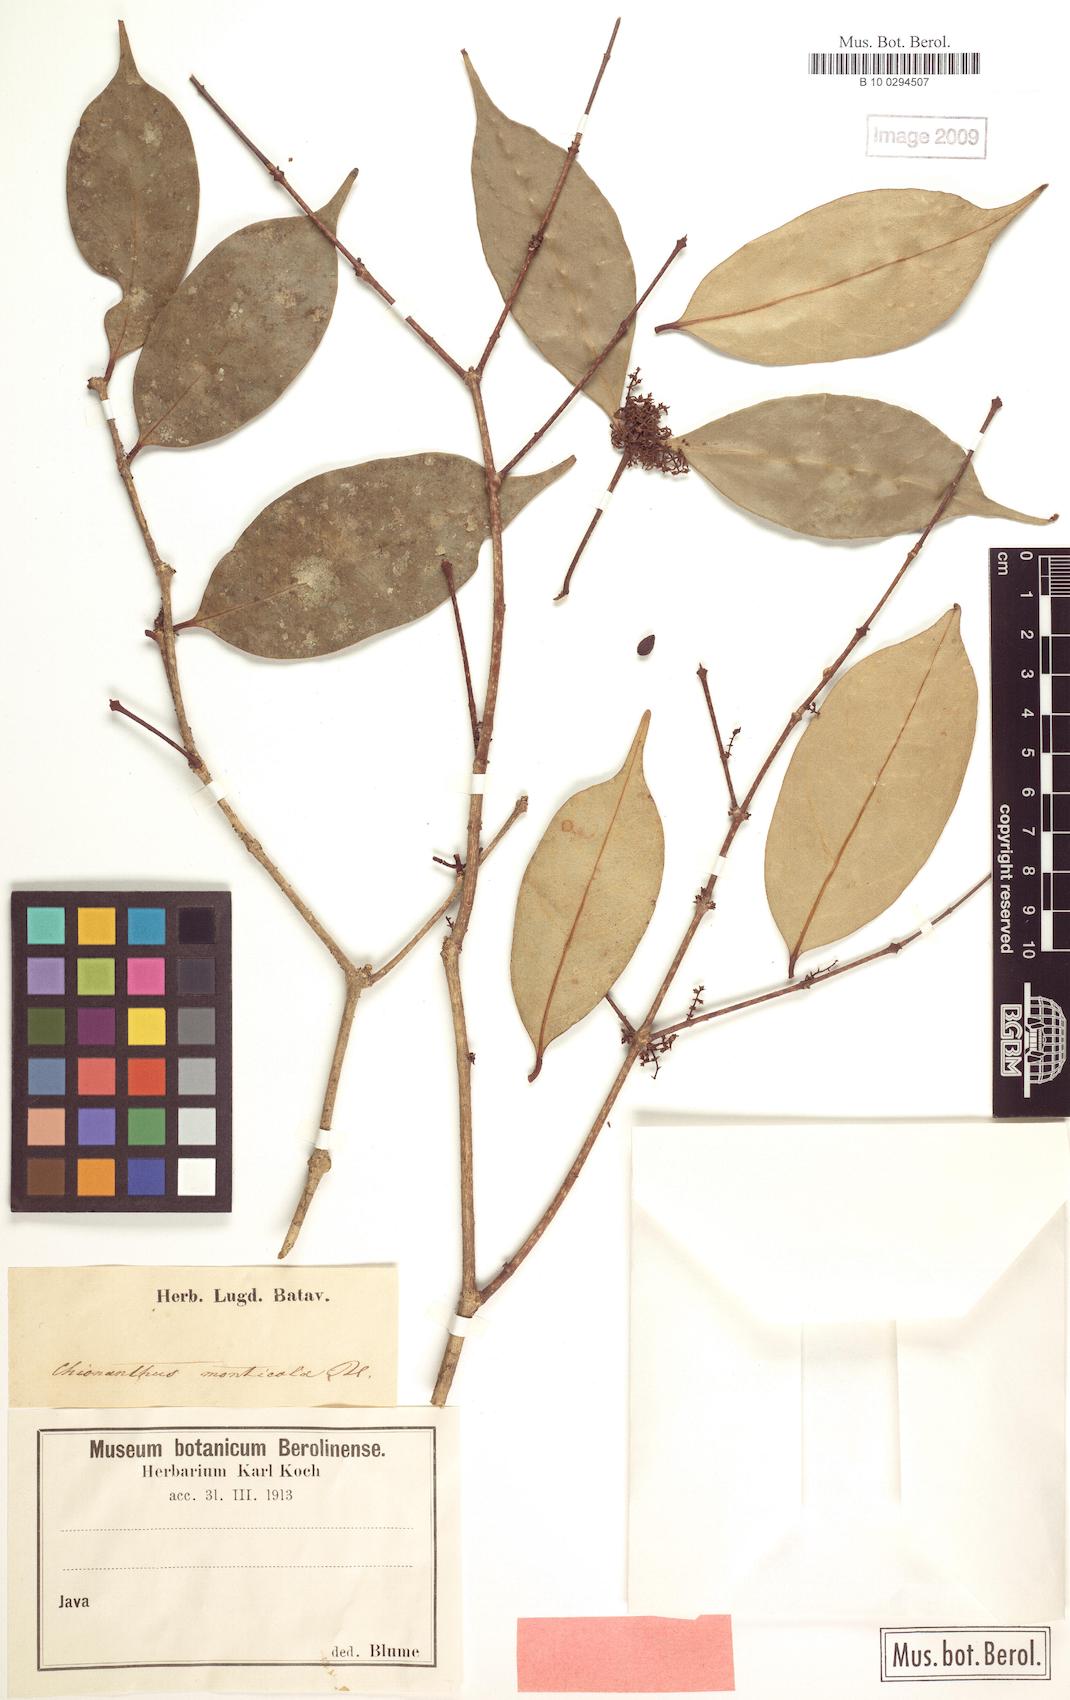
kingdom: Plantae
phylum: Tracheophyta
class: Magnoliopsida
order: Lamiales
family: Oleaceae
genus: Chionanthus
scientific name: Chionanthus montanus
